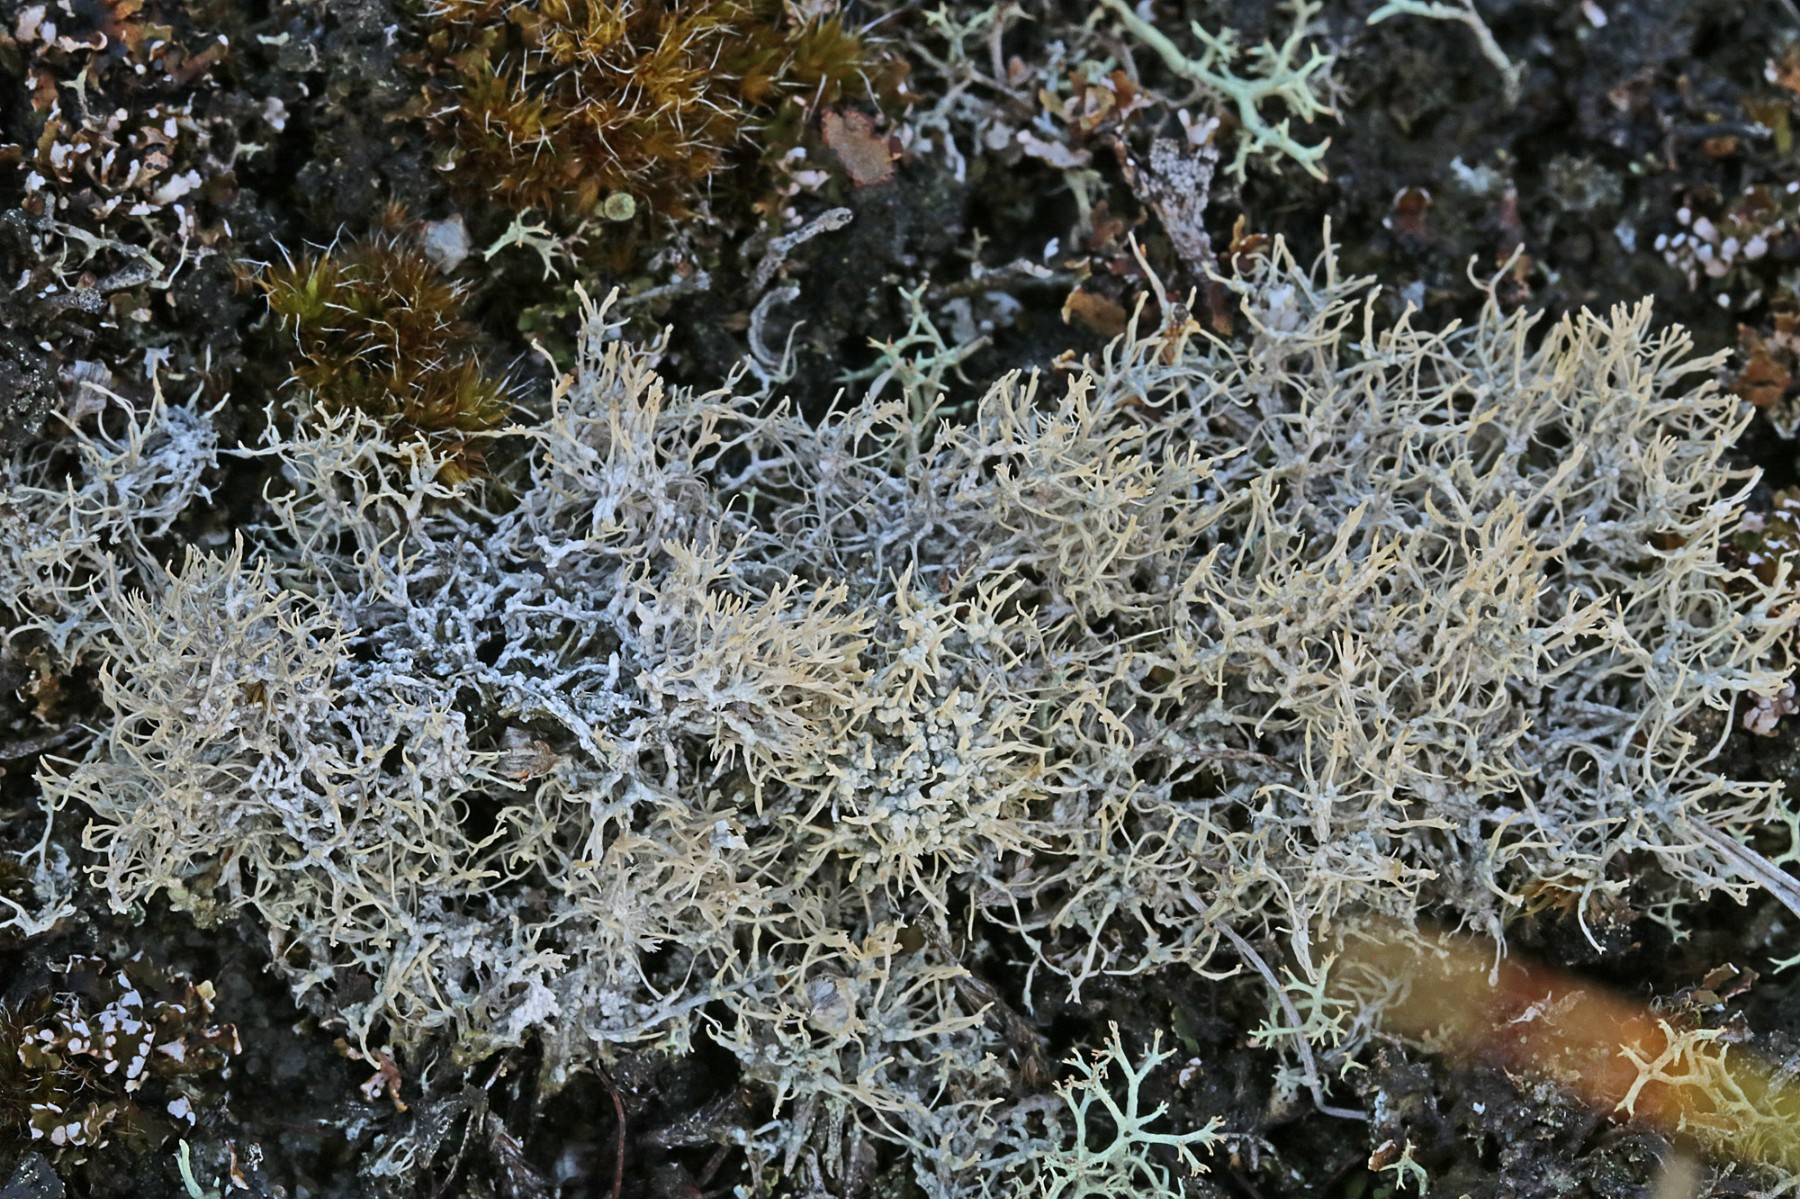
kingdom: Fungi
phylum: Ascomycota
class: Lecanoromycetes
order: Pertusariales
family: Ochrolechiaceae
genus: Ochrolechia
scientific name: Ochrolechia frigida
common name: fjeld-blegskivelav
